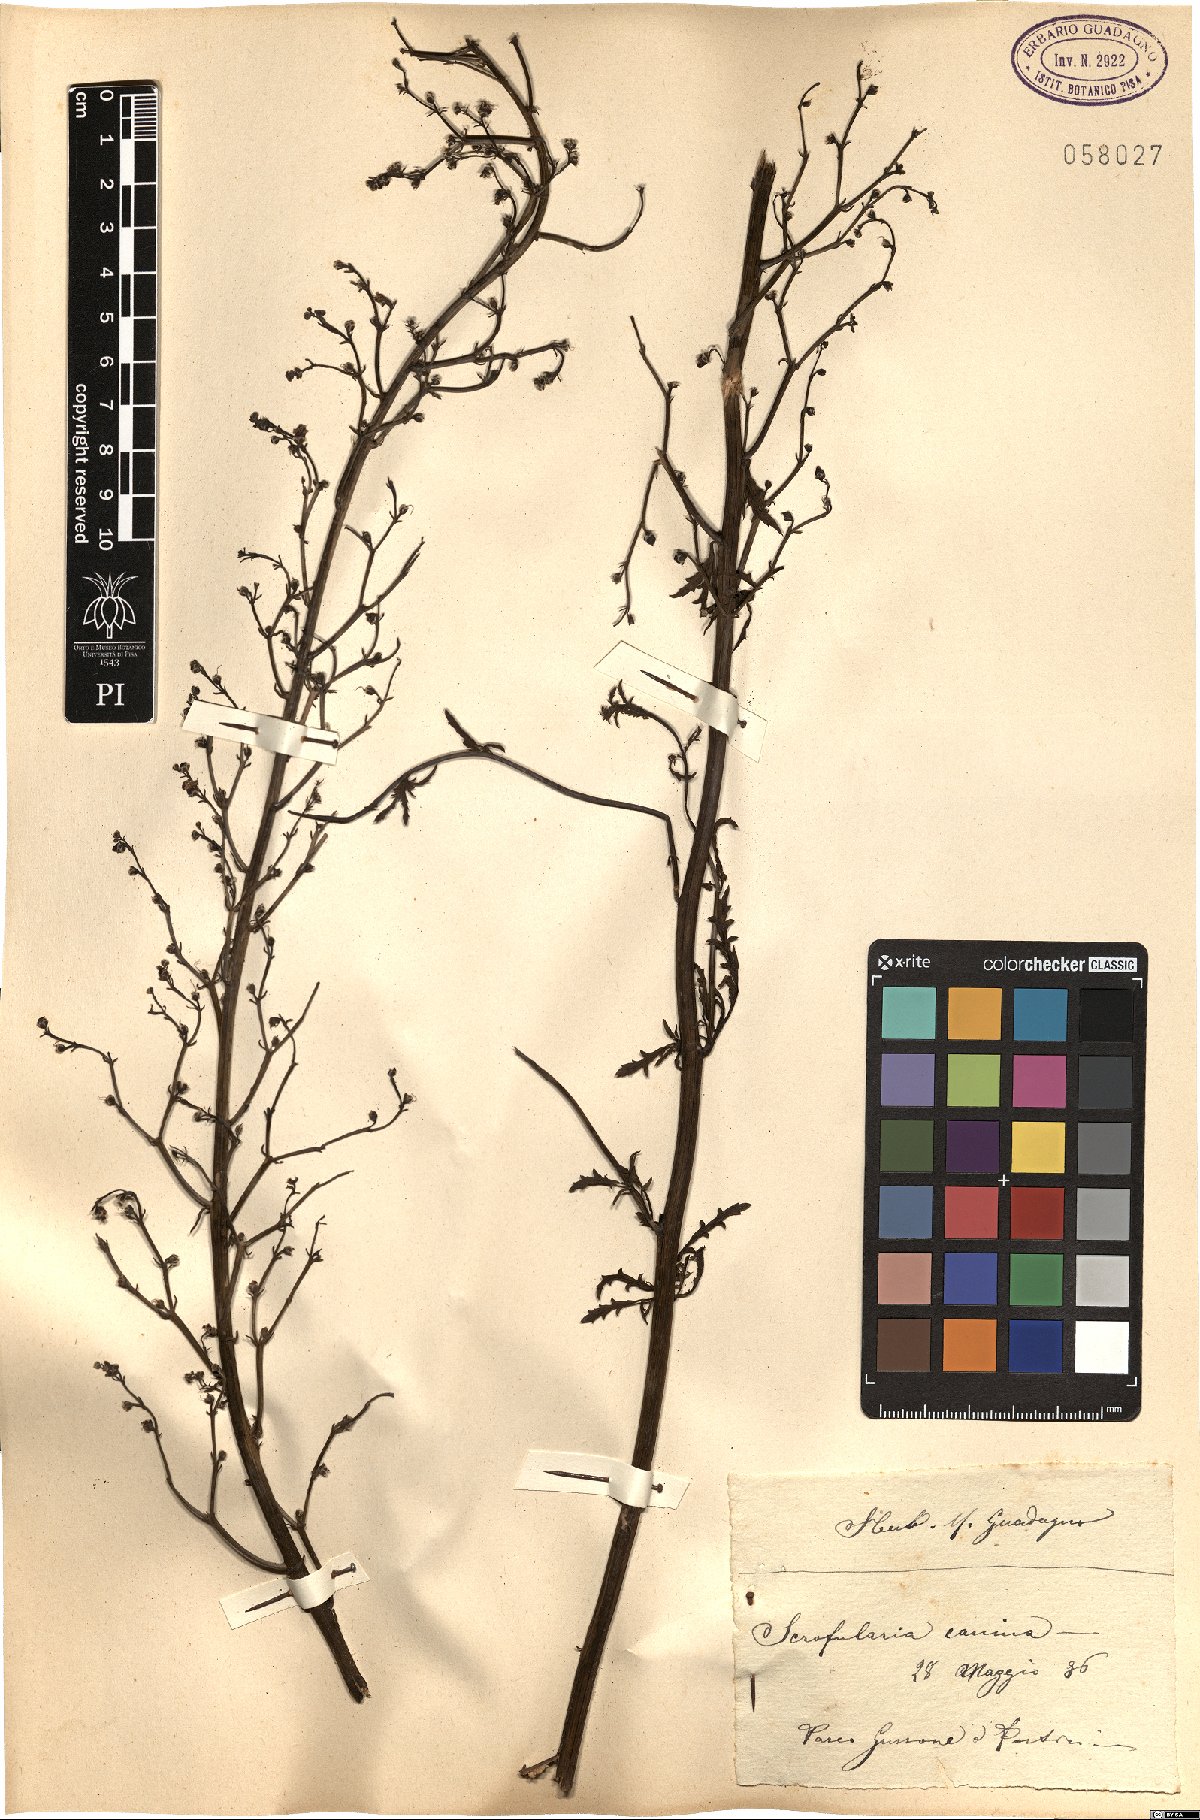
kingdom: Plantae
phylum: Tracheophyta
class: Magnoliopsida
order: Lamiales
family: Scrophulariaceae
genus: Scrophularia
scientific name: Scrophularia canina
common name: French figwort
